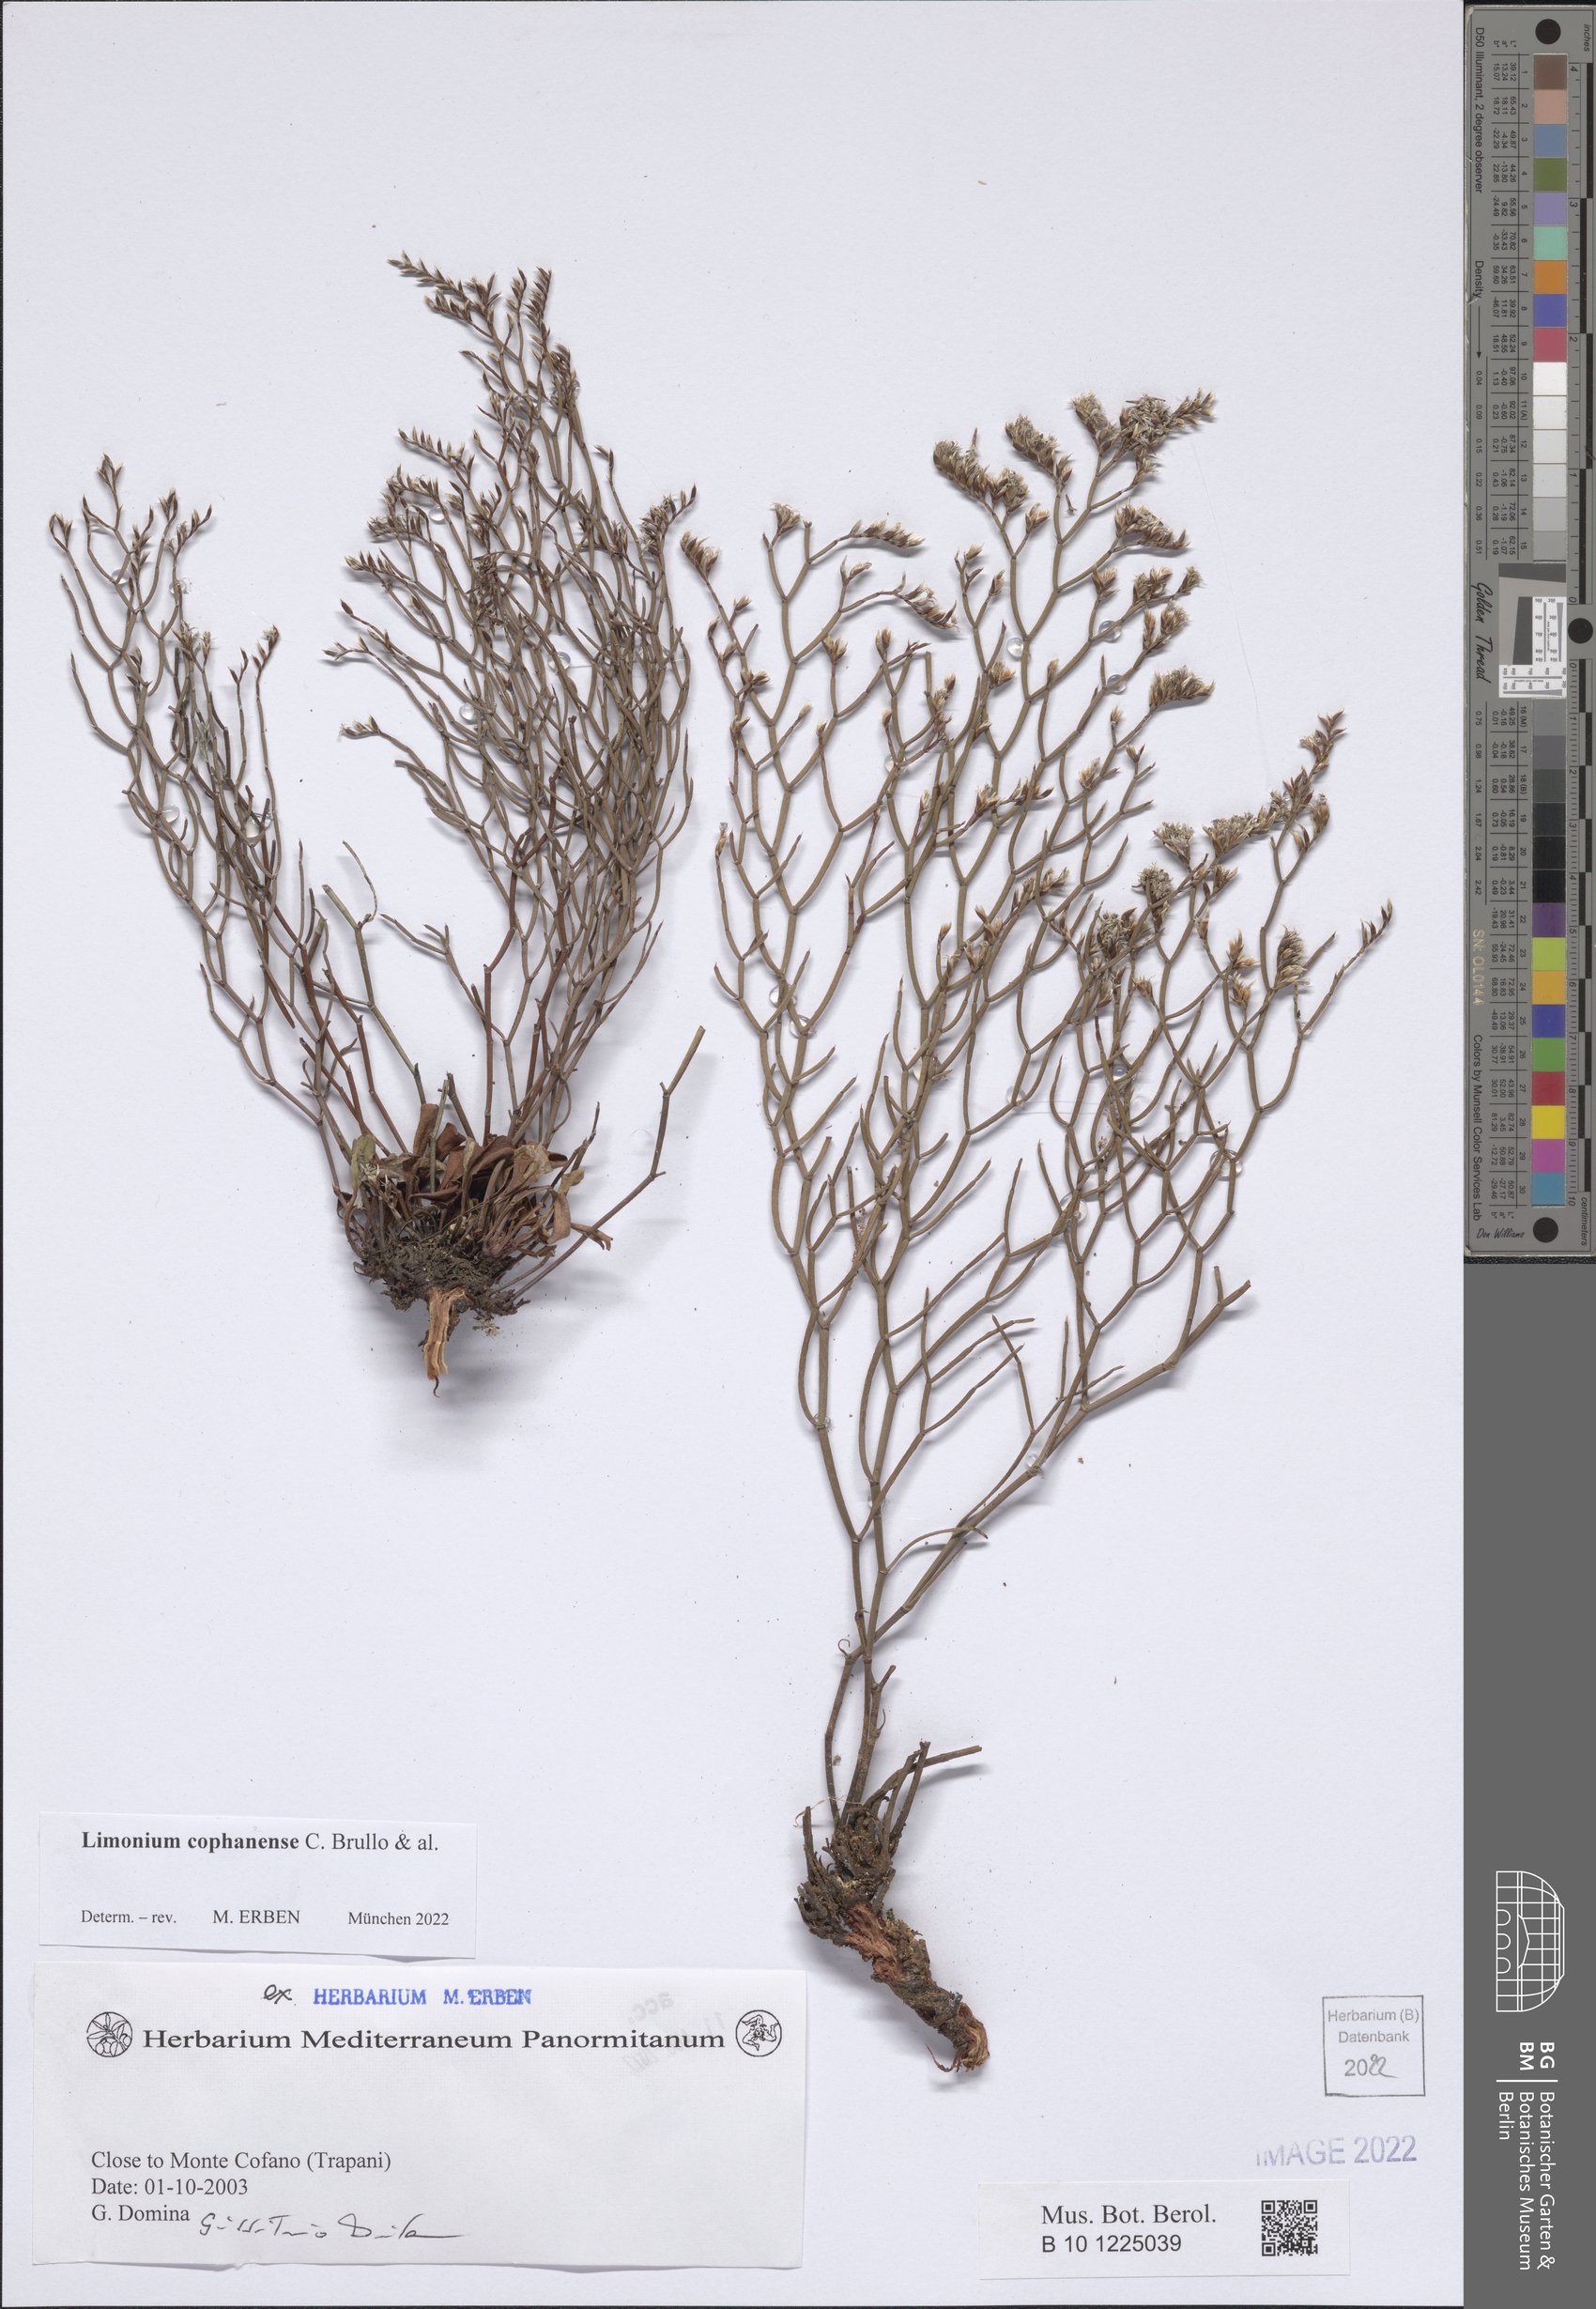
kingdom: Plantae
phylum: Tracheophyta
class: Magnoliopsida
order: Caryophyllales
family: Plumbaginaceae
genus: Limonium
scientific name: Limonium cophanense
